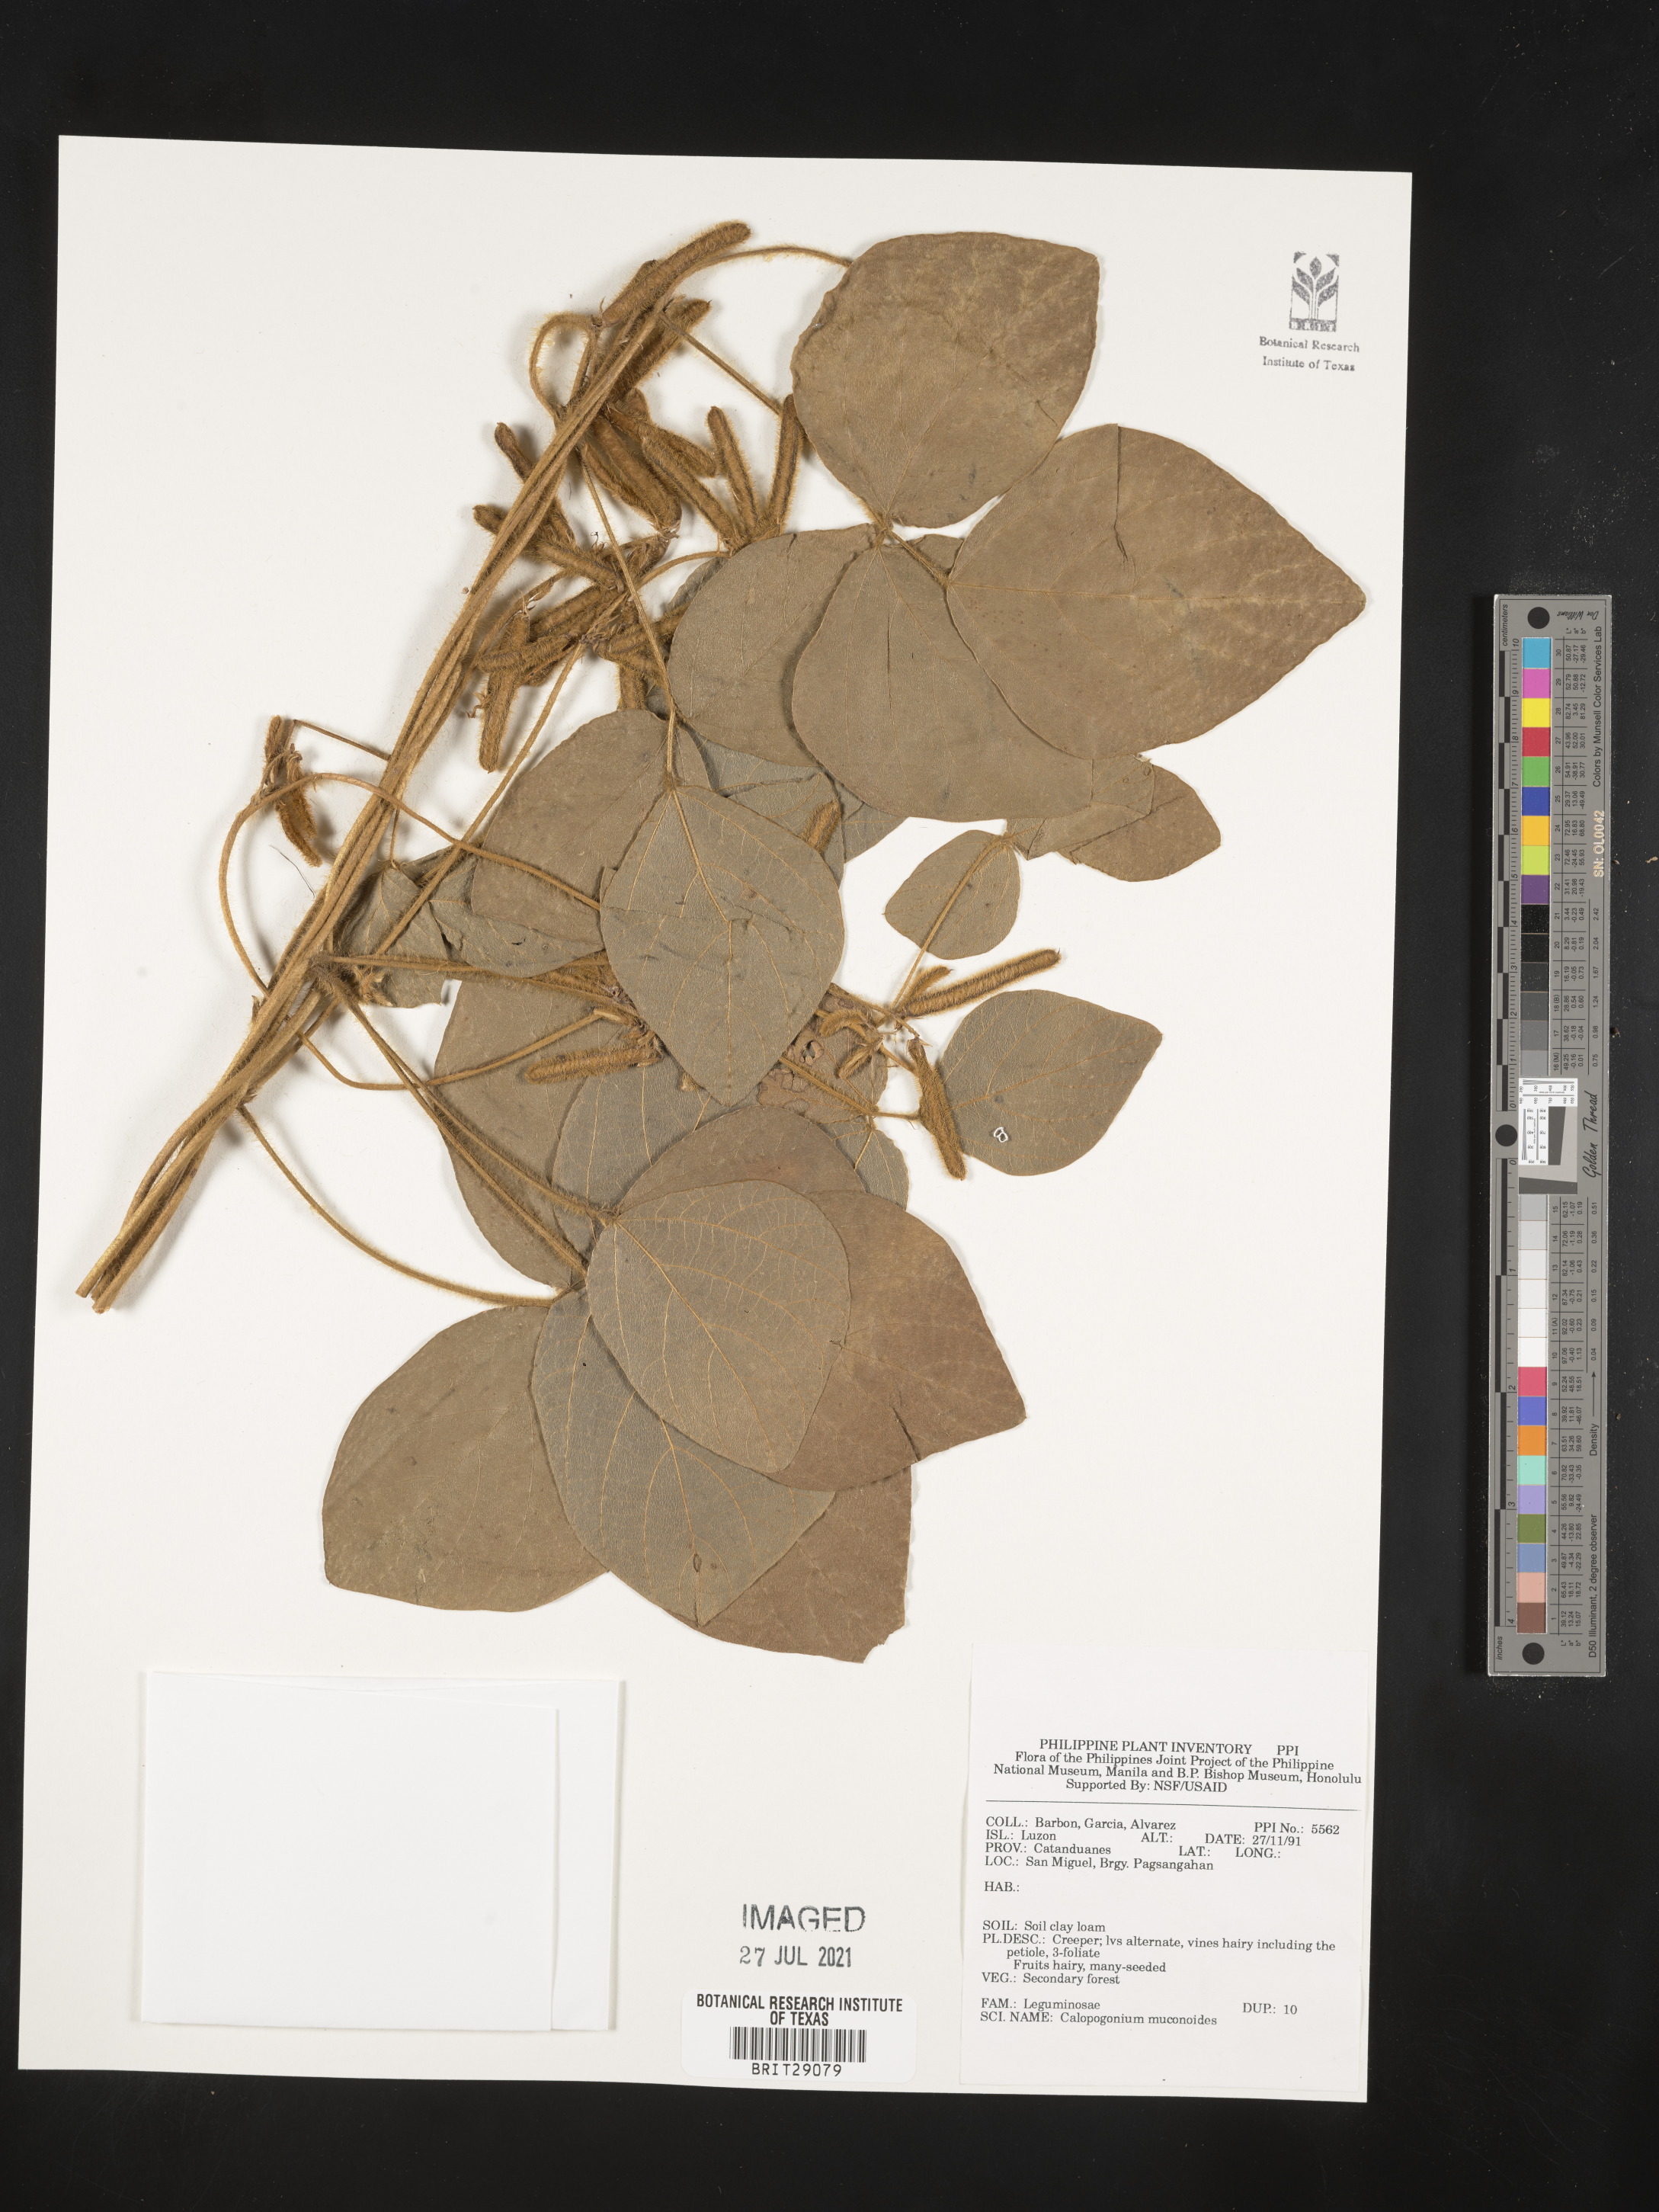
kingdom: Plantae
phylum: Tracheophyta
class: Magnoliopsida
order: Fabales
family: Fabaceae
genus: Calopogonium
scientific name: Calopogonium mucunoides
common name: Calopo
